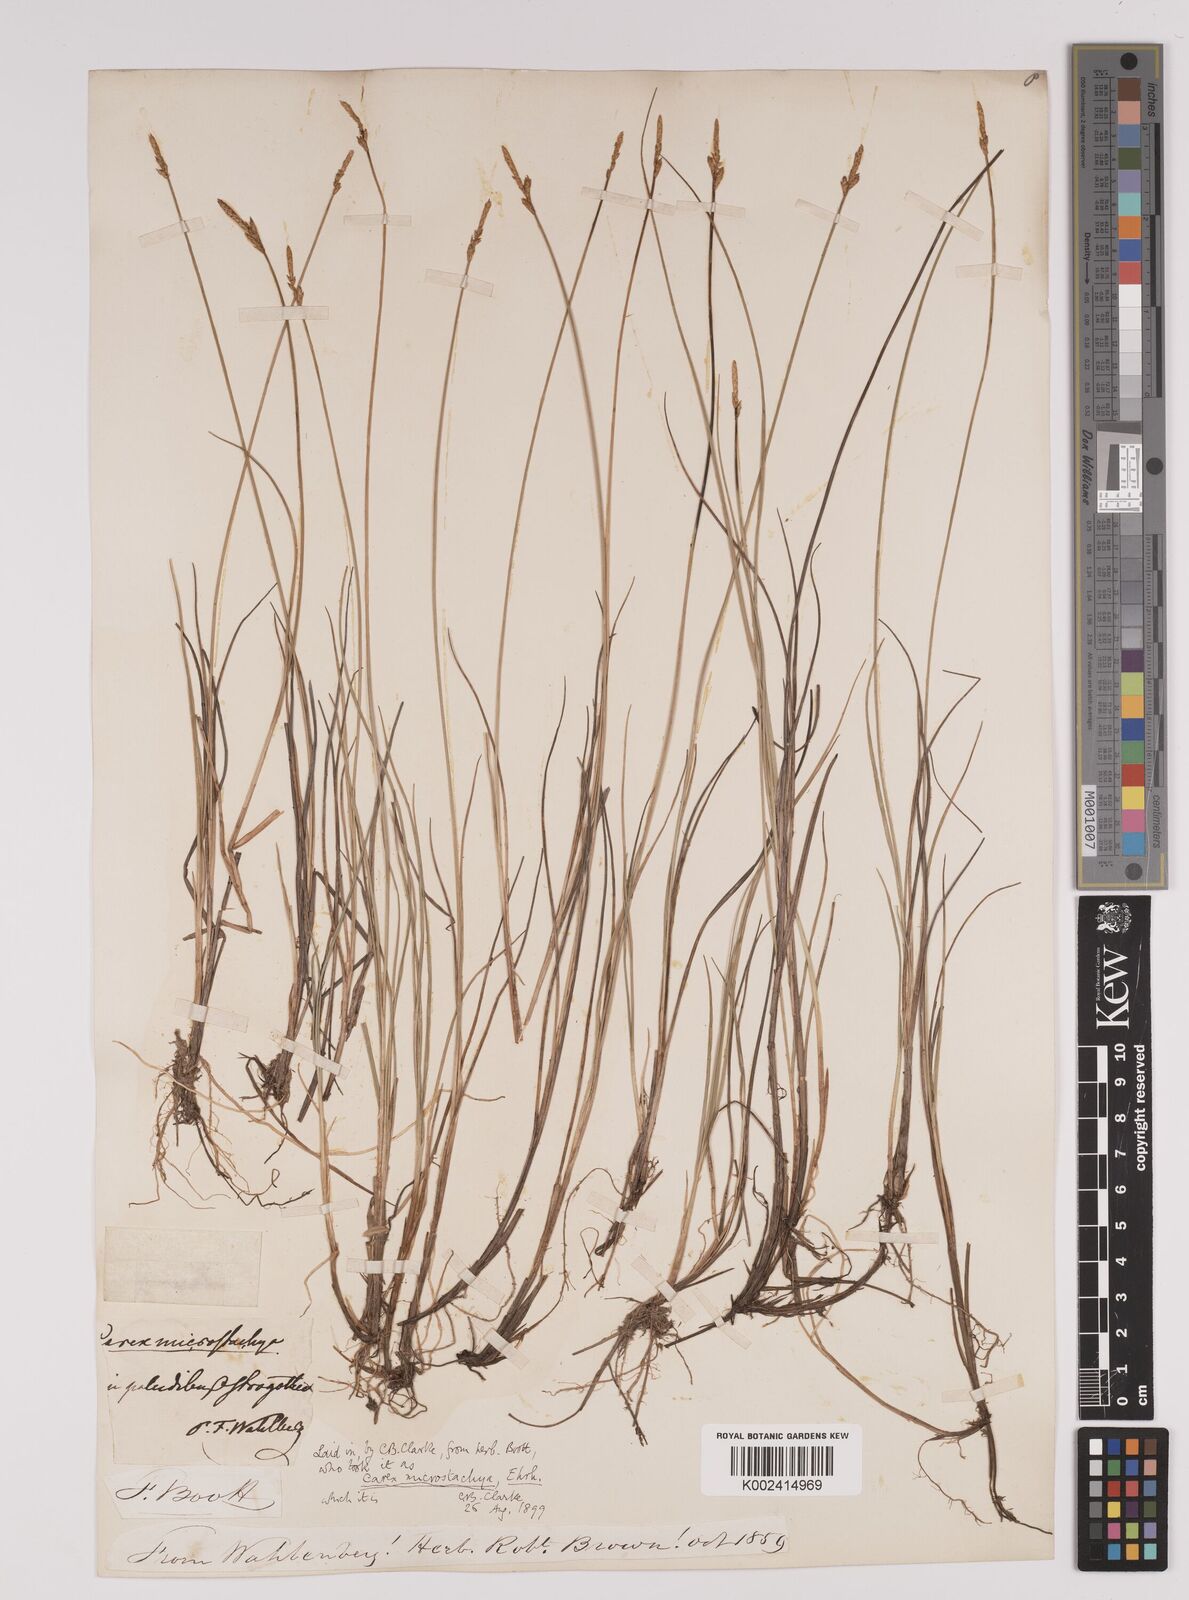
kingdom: Plantae
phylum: Tracheophyta
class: Liliopsida
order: Poales
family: Cyperaceae
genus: Carex
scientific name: Carex dioica
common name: Dioecious sedge
